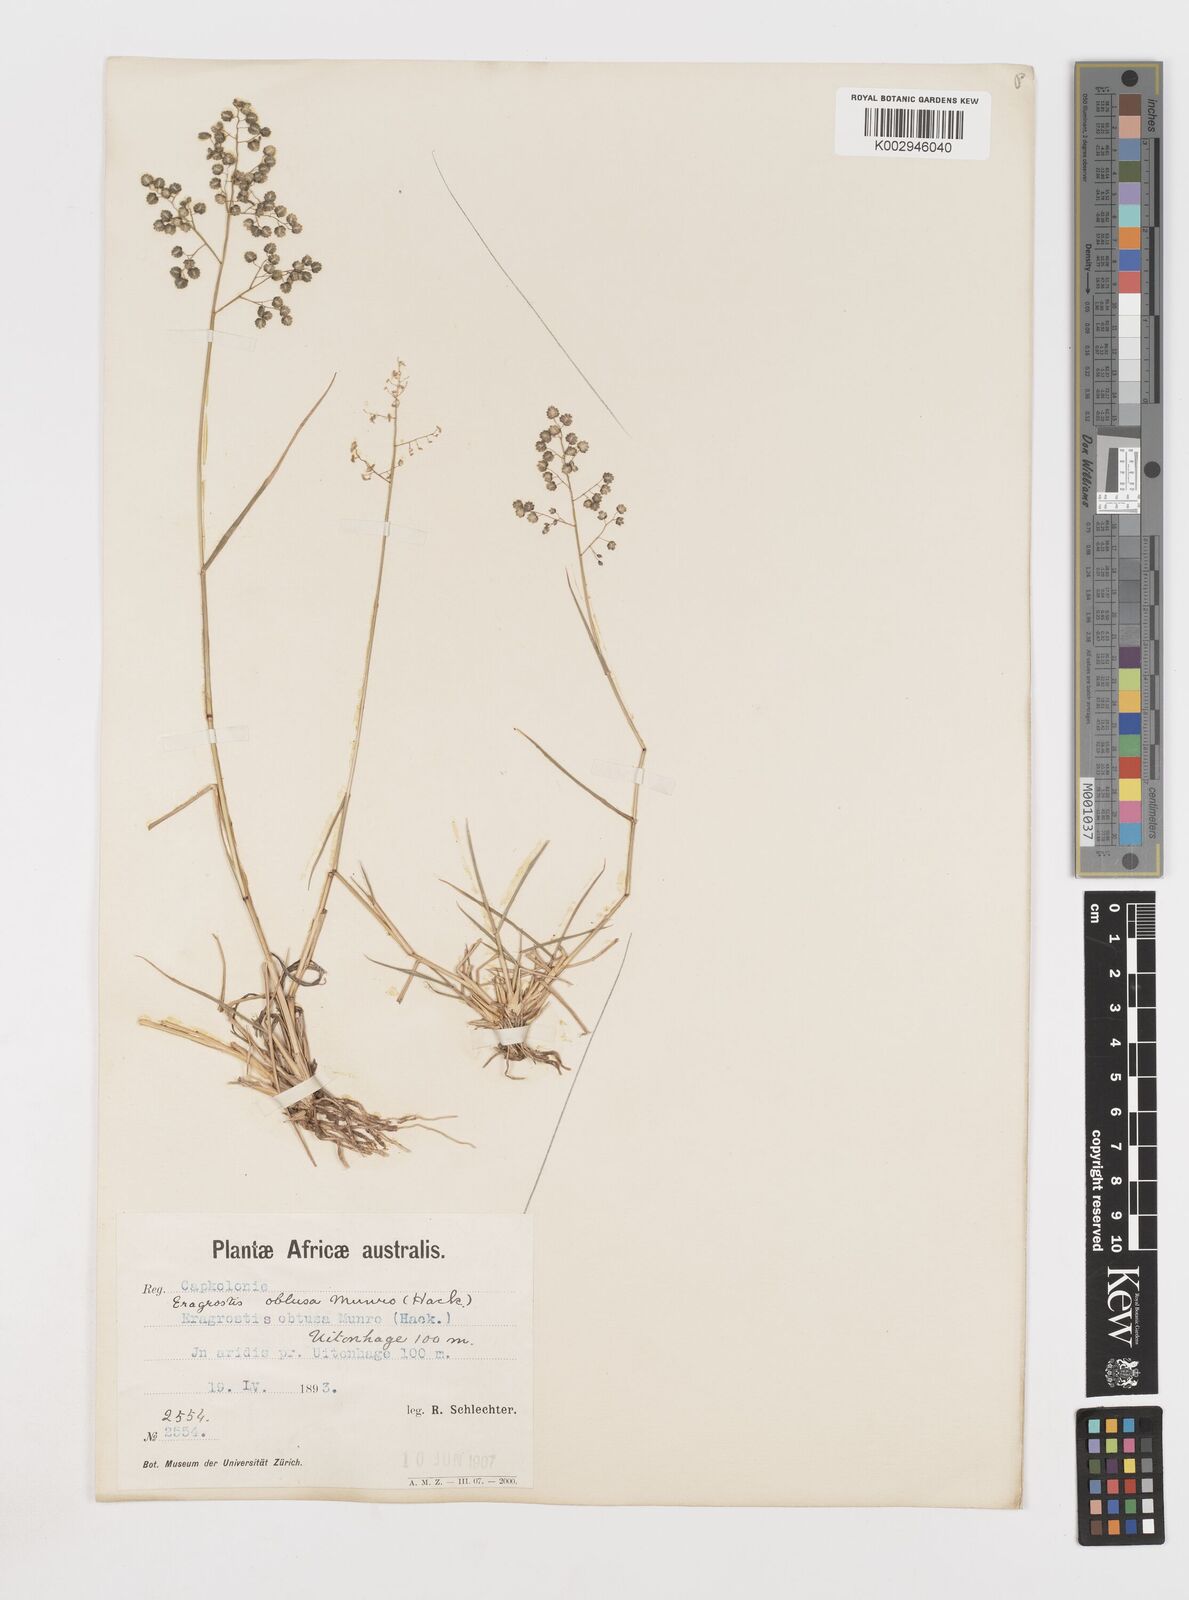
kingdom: Plantae
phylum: Tracheophyta
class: Liliopsida
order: Poales
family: Poaceae
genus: Eragrostis
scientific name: Eragrostis obtusa
